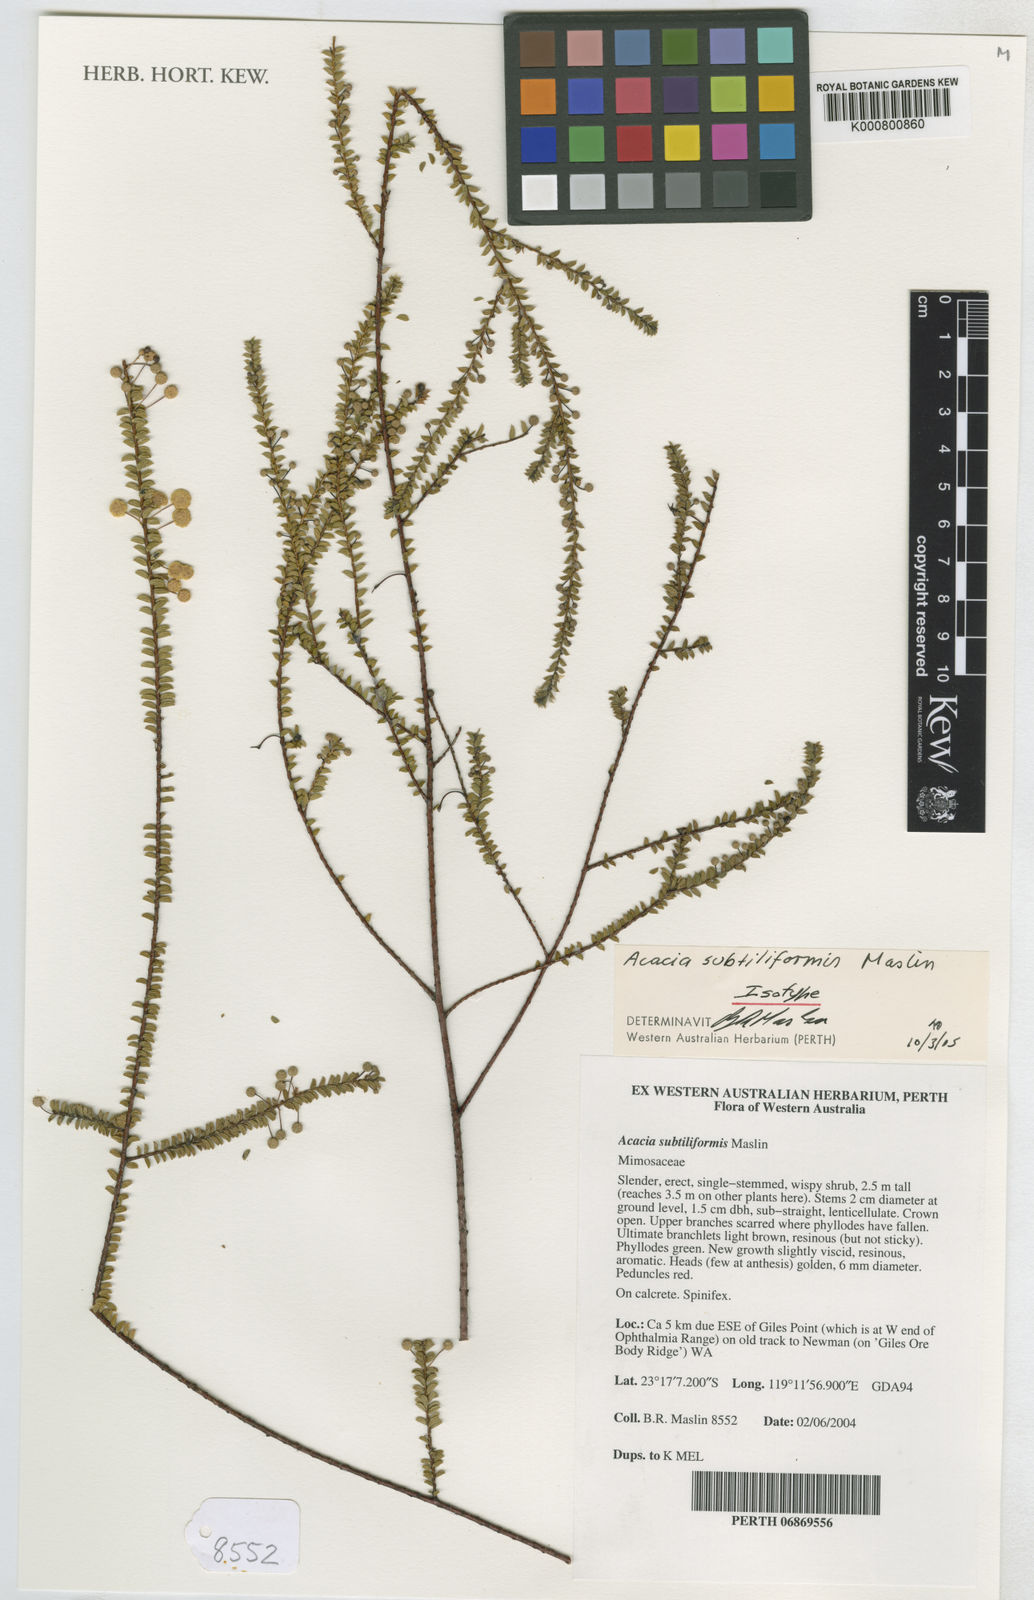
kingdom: Plantae
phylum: Tracheophyta
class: Magnoliopsida
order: Fabales
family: Fabaceae
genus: Acacia
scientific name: Acacia subtiliformis
